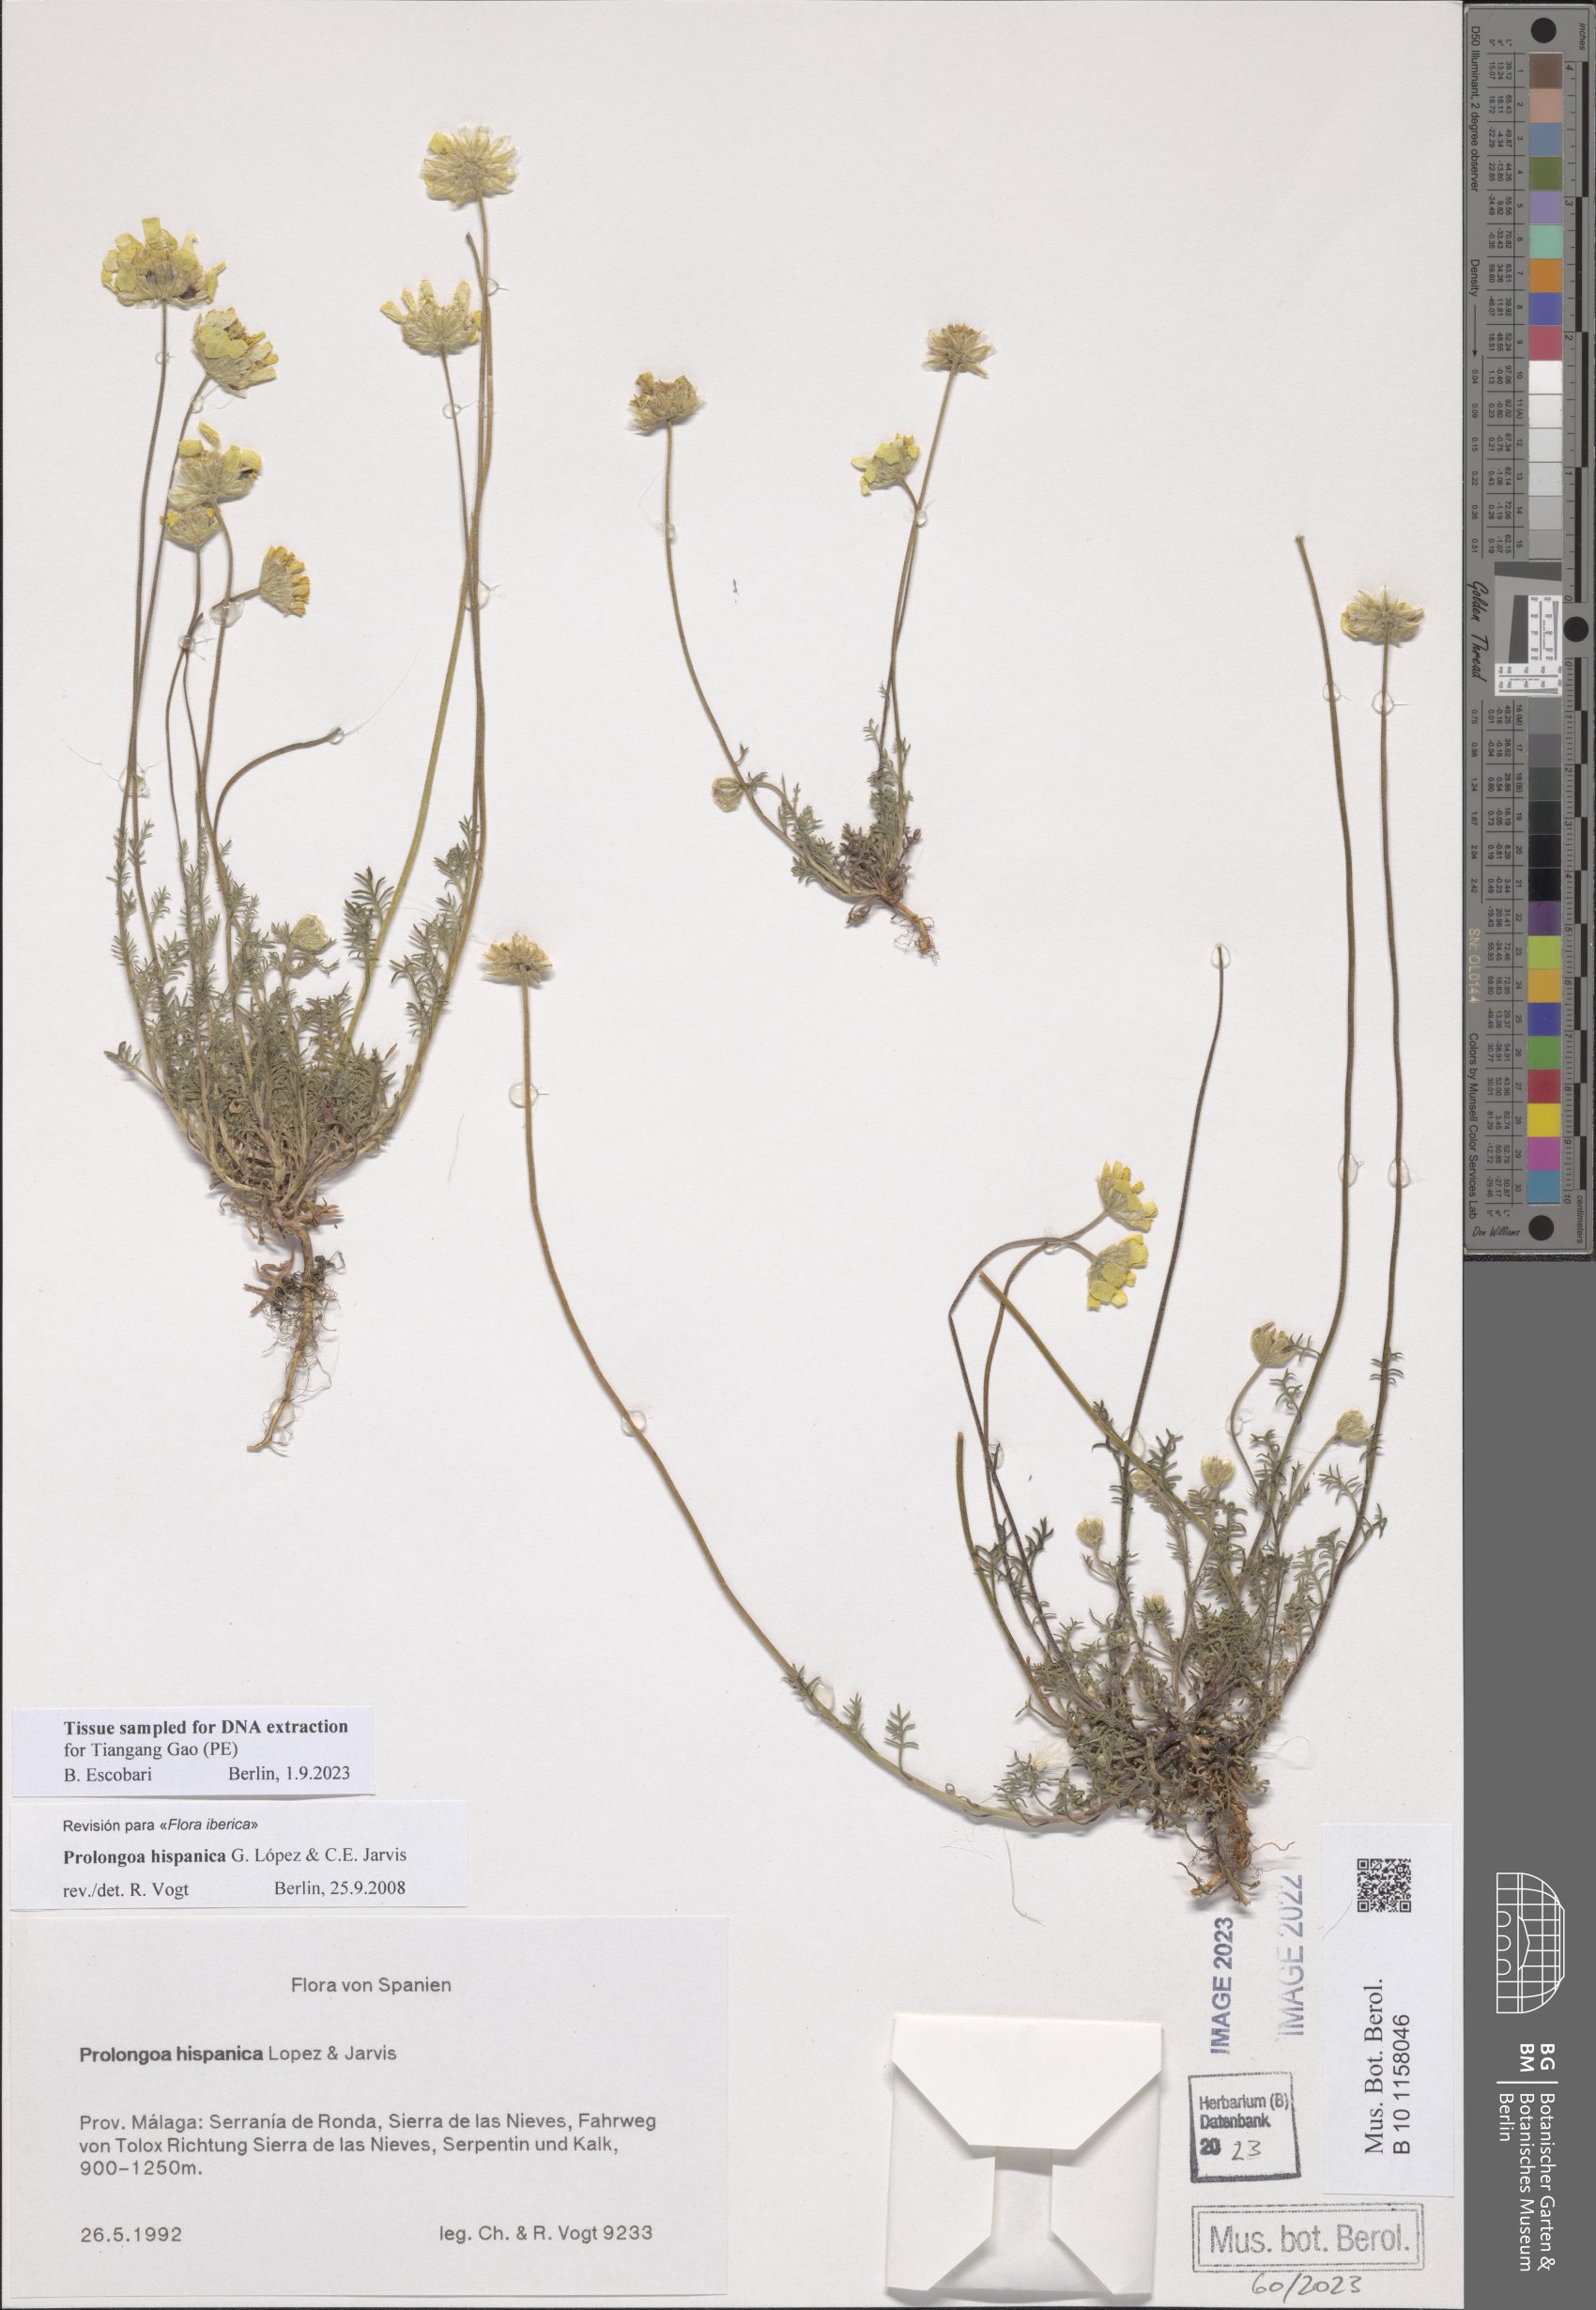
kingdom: Plantae
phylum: Tracheophyta
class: Magnoliopsida
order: Asterales
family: Asteraceae
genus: Prolongoa
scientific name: Prolongoa hispanica
